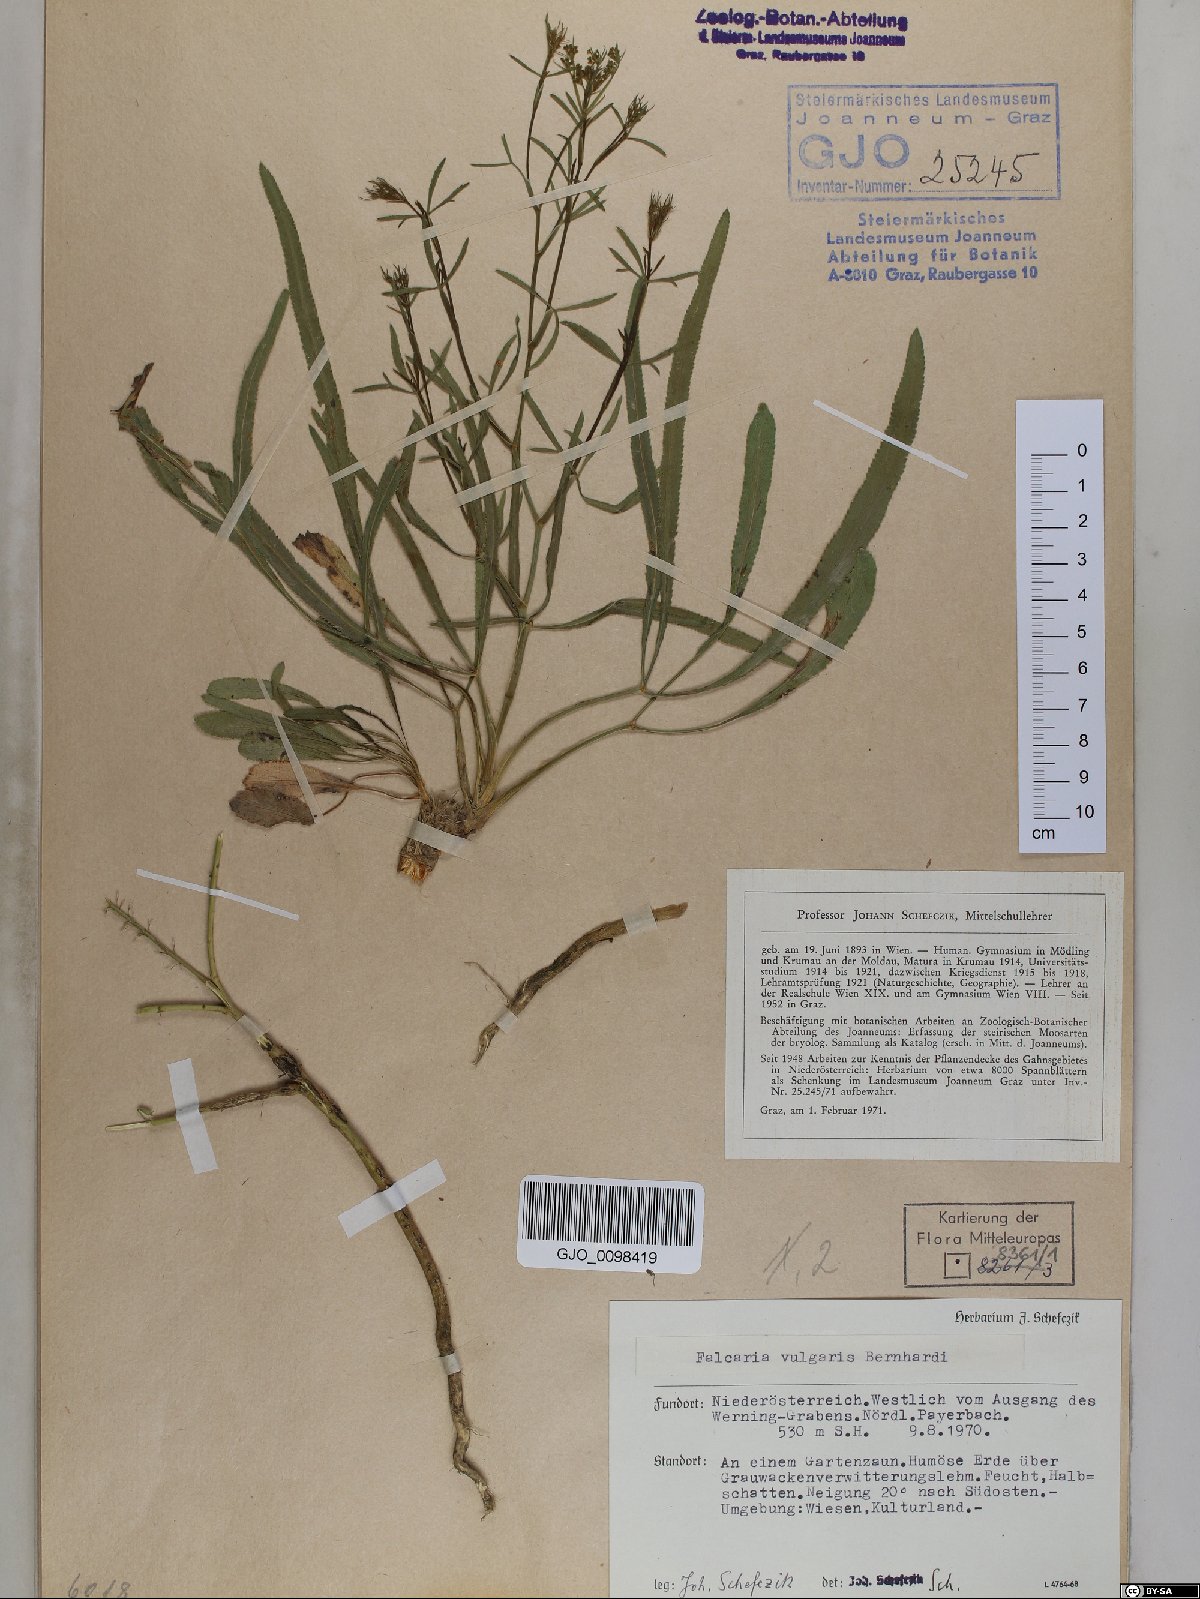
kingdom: Plantae
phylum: Tracheophyta
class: Magnoliopsida
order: Apiales
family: Apiaceae
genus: Falcaria
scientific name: Falcaria vulgaris
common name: Longleaf
